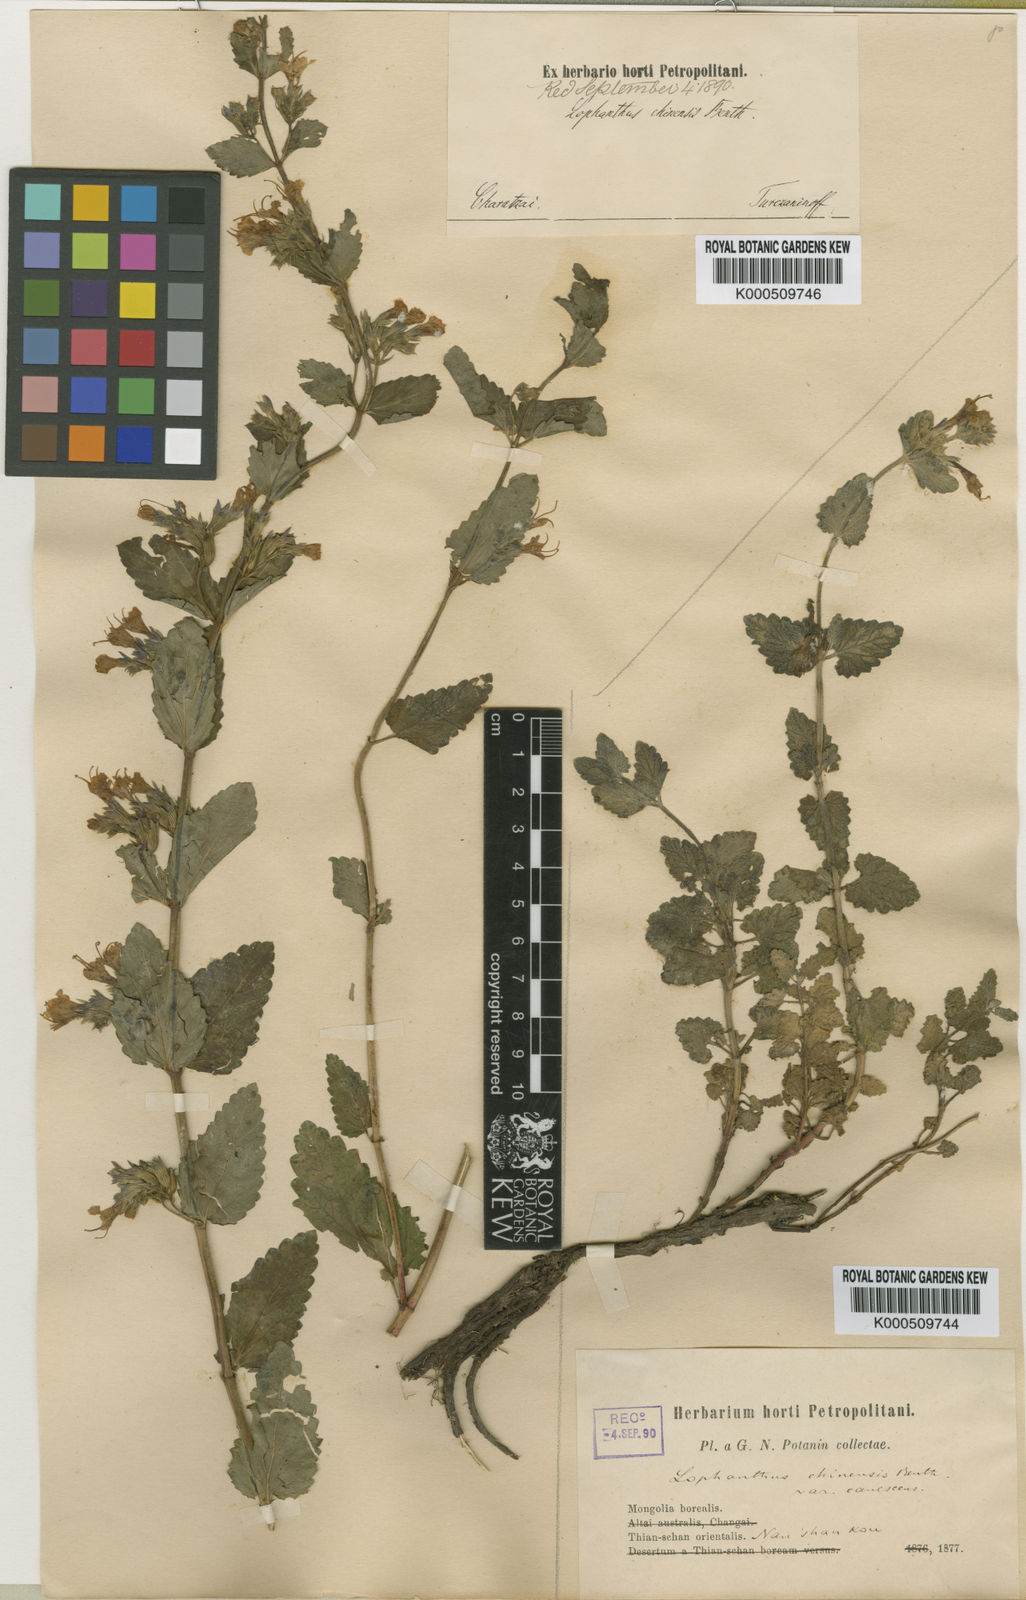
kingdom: Plantae
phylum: Tracheophyta
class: Magnoliopsida
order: Lamiales
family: Lamiaceae
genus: Nepeta
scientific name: Nepeta lophanthus
